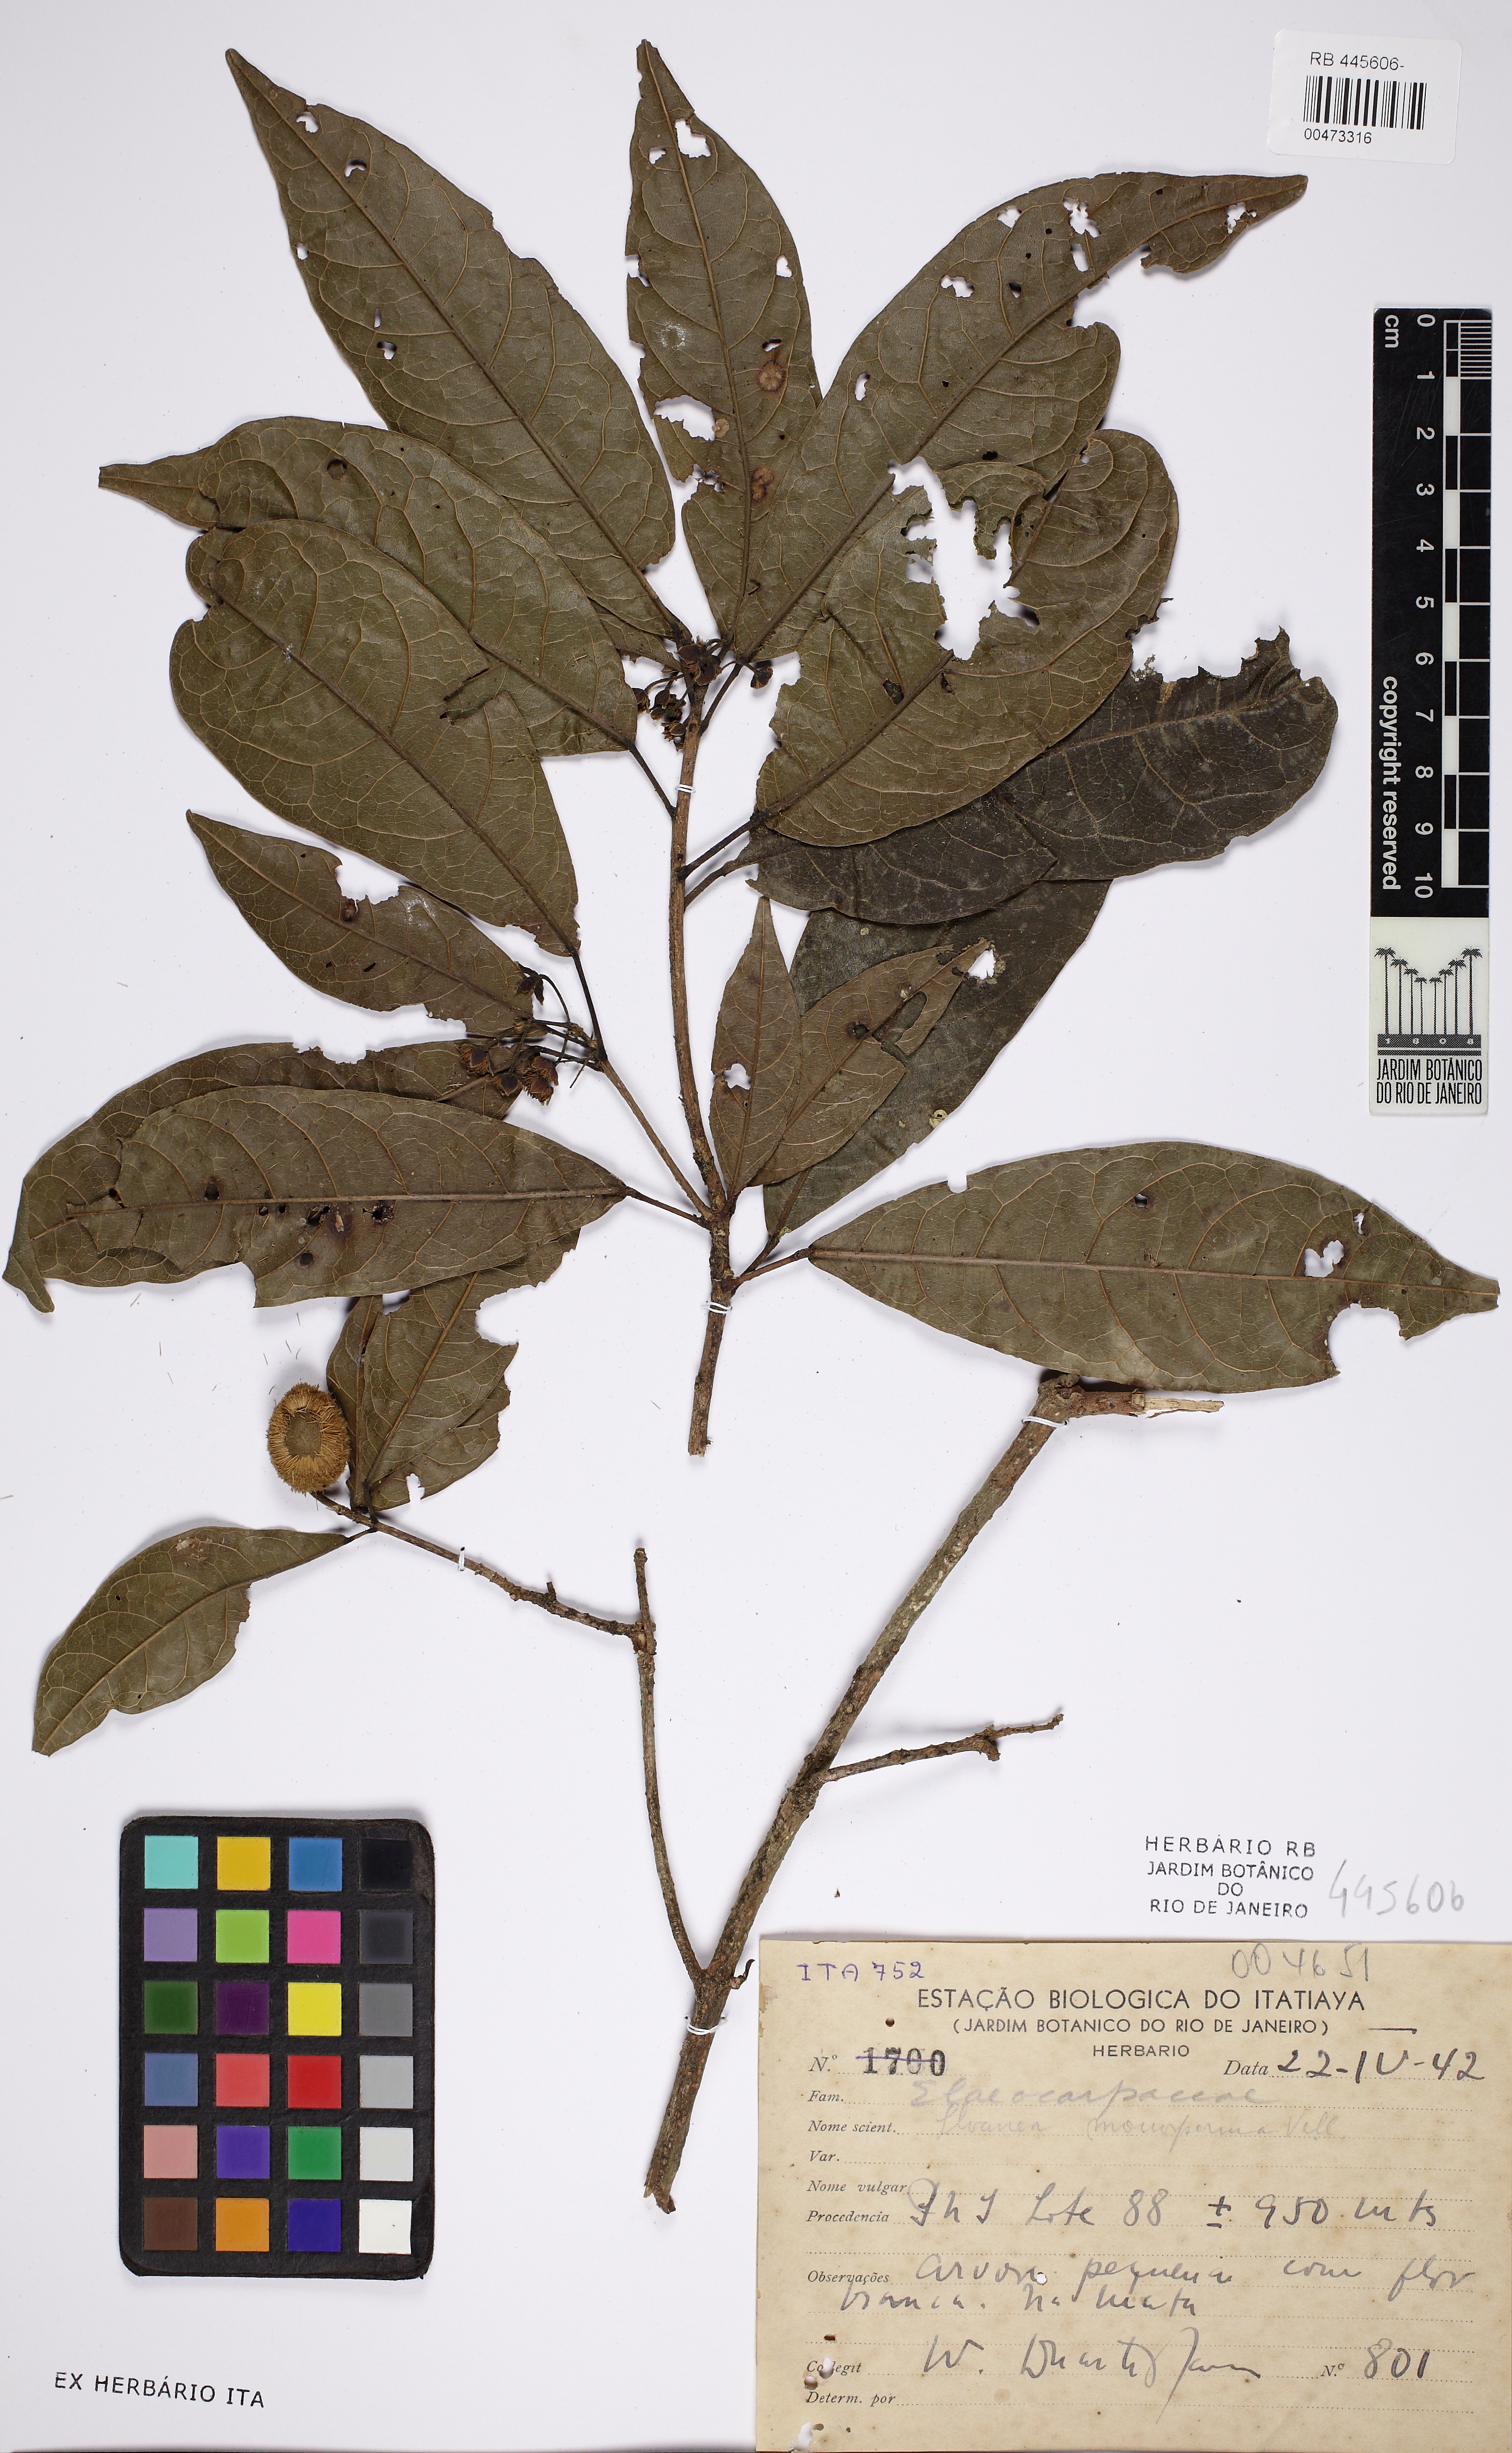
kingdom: Plantae
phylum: Tracheophyta
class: Magnoliopsida
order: Oxalidales
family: Elaeocarpaceae
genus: Sloanea
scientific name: Sloanea hirsuta
